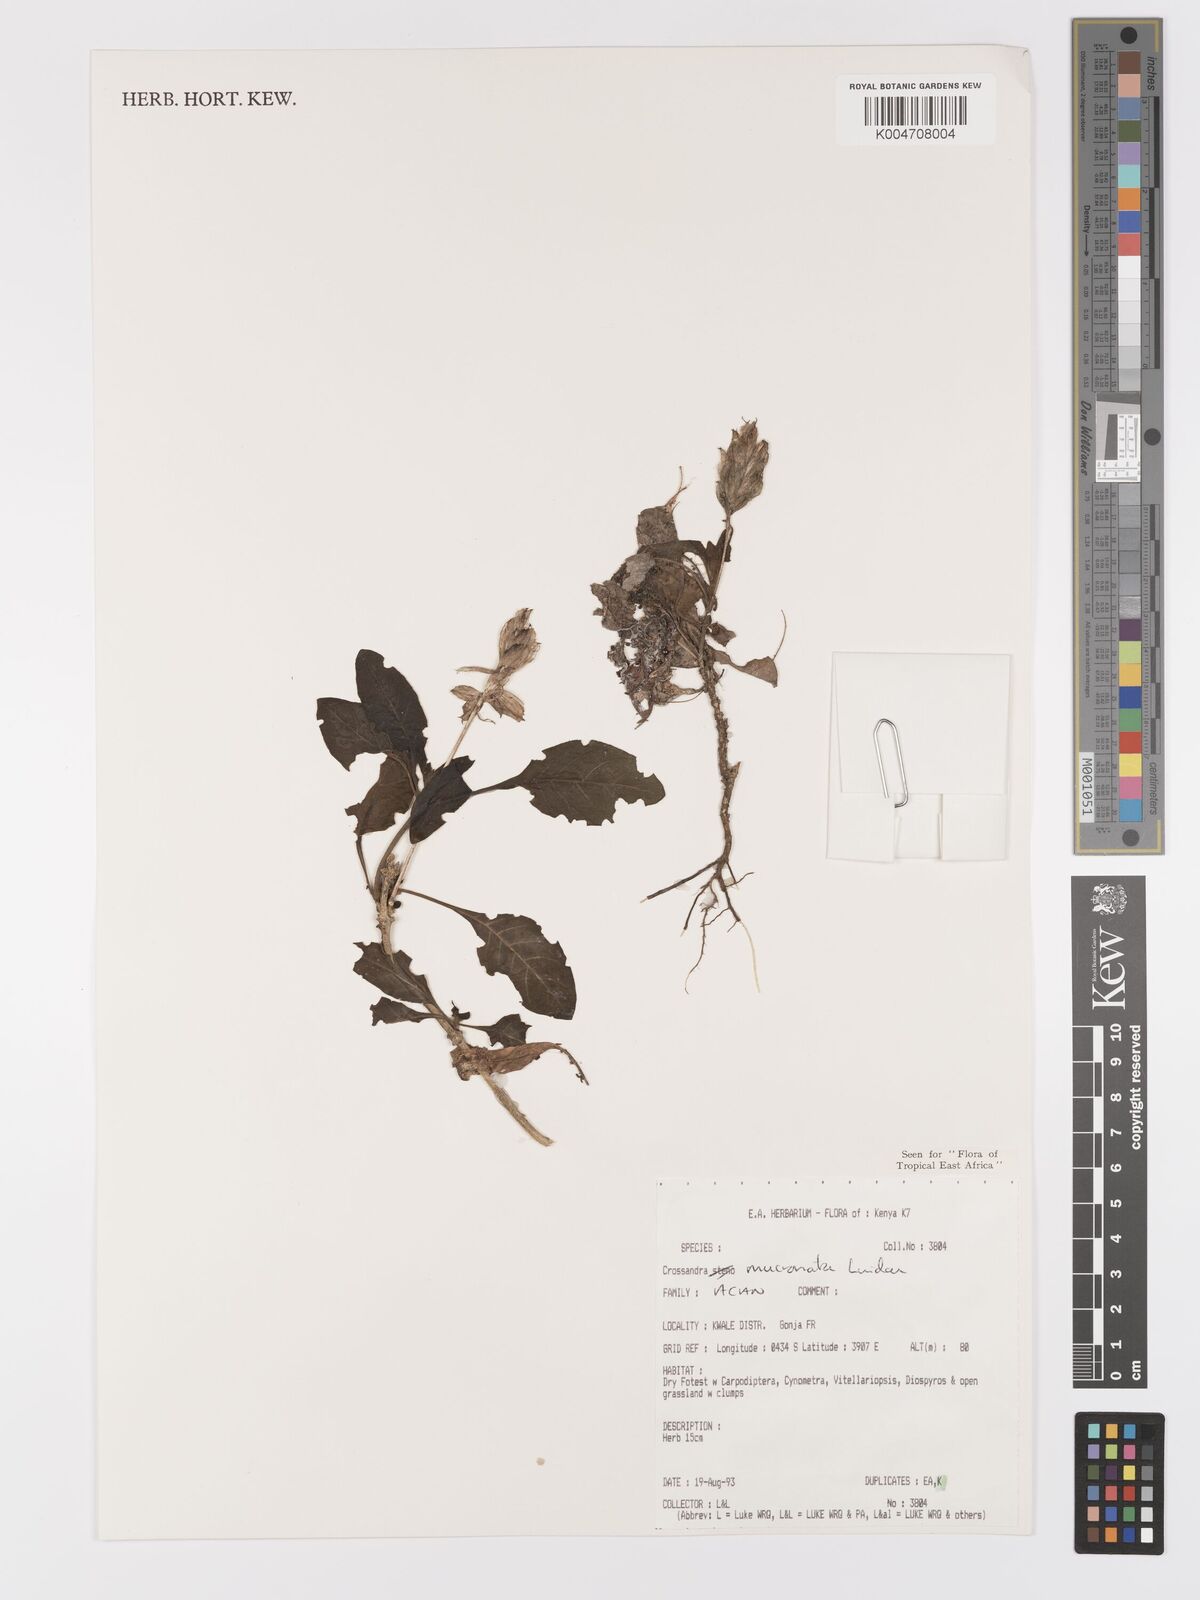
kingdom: Plantae
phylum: Tracheophyta
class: Magnoliopsida
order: Lamiales
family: Acanthaceae
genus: Crossandra
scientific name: Crossandra mucronata
